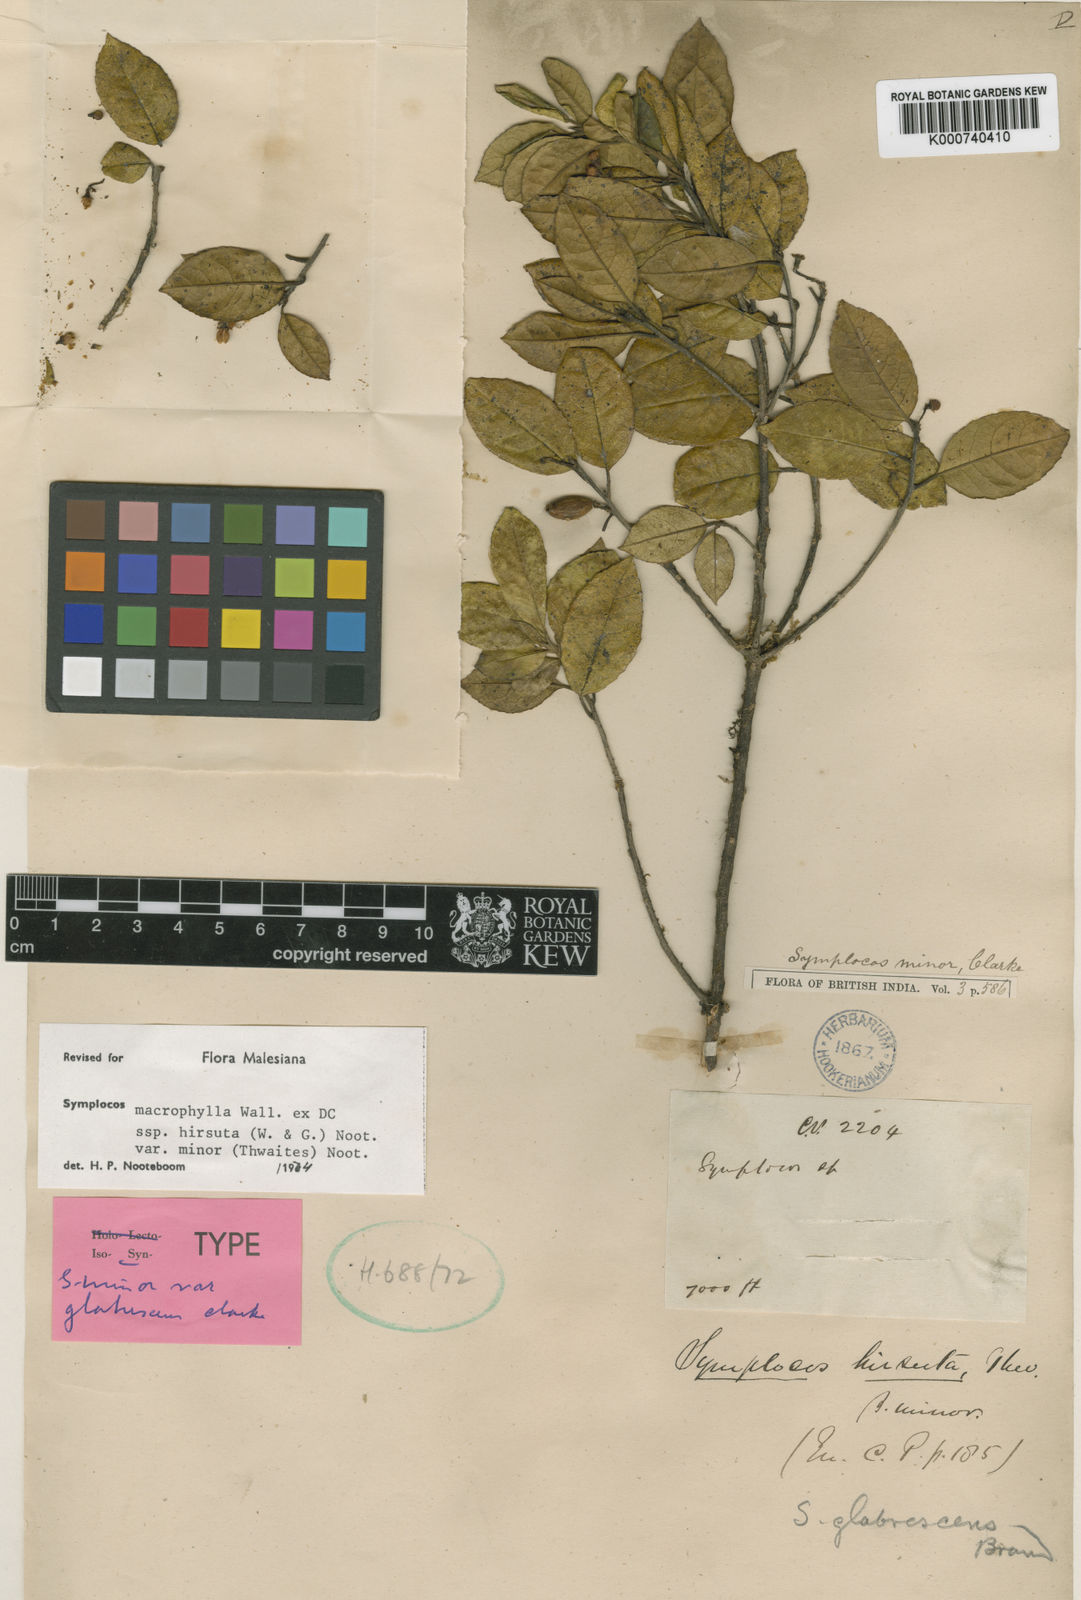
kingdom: Plantae
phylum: Tracheophyta
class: Magnoliopsida
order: Ericales
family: Symplocaceae
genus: Symplocos
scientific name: Symplocos
